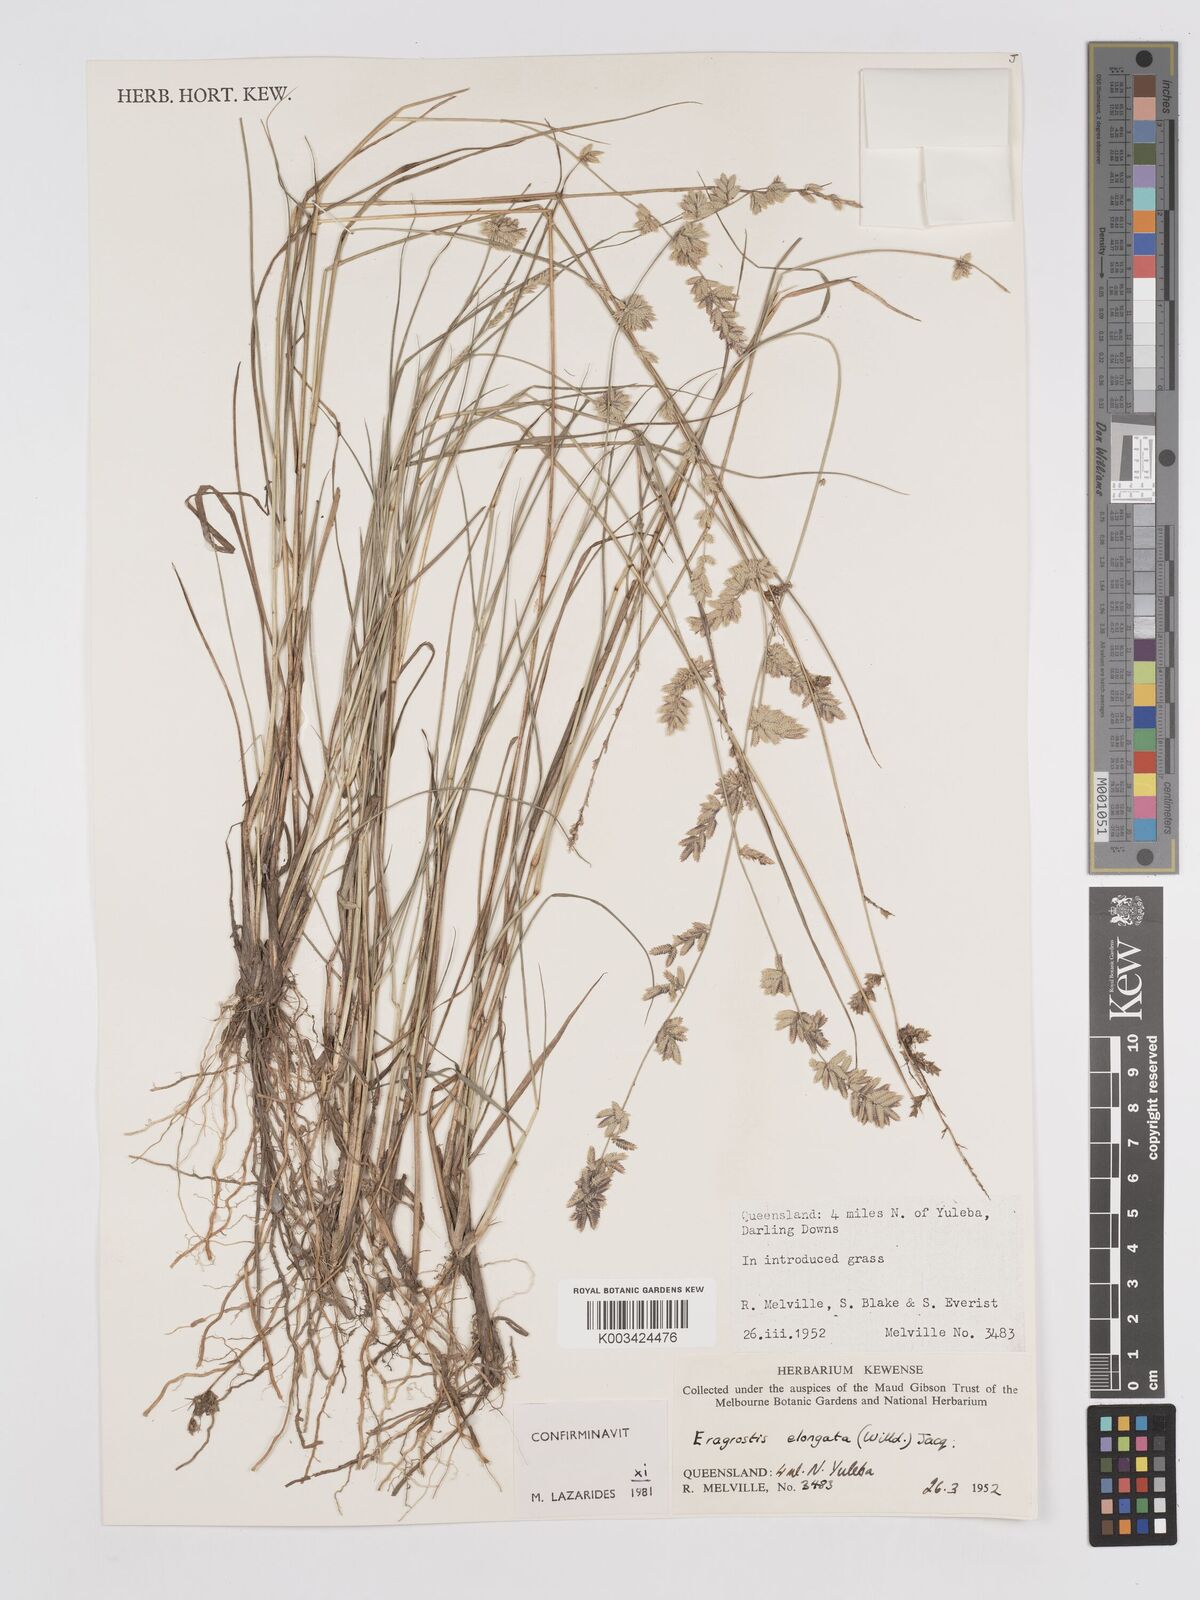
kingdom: Plantae
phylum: Tracheophyta
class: Liliopsida
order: Poales
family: Poaceae
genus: Eragrostis
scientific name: Eragrostis elongata
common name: Long lovegrass
